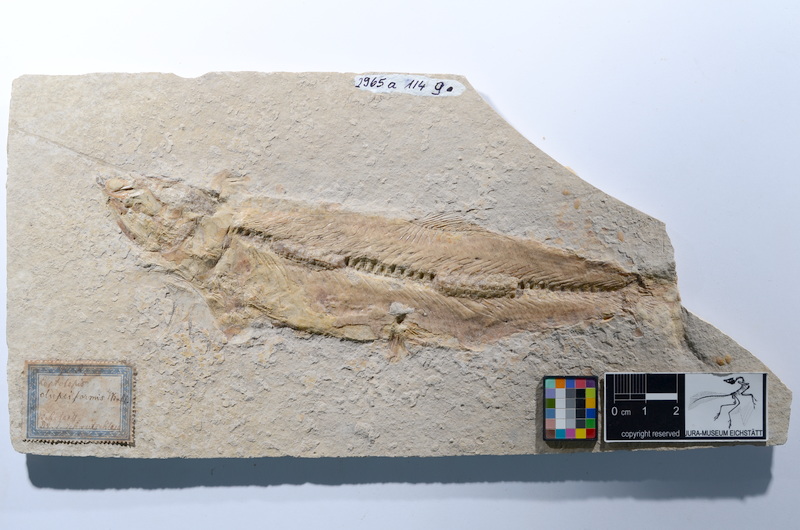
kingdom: Animalia
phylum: Chordata
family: Ascalaboidae
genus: Tharsis
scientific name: Tharsis dubius
